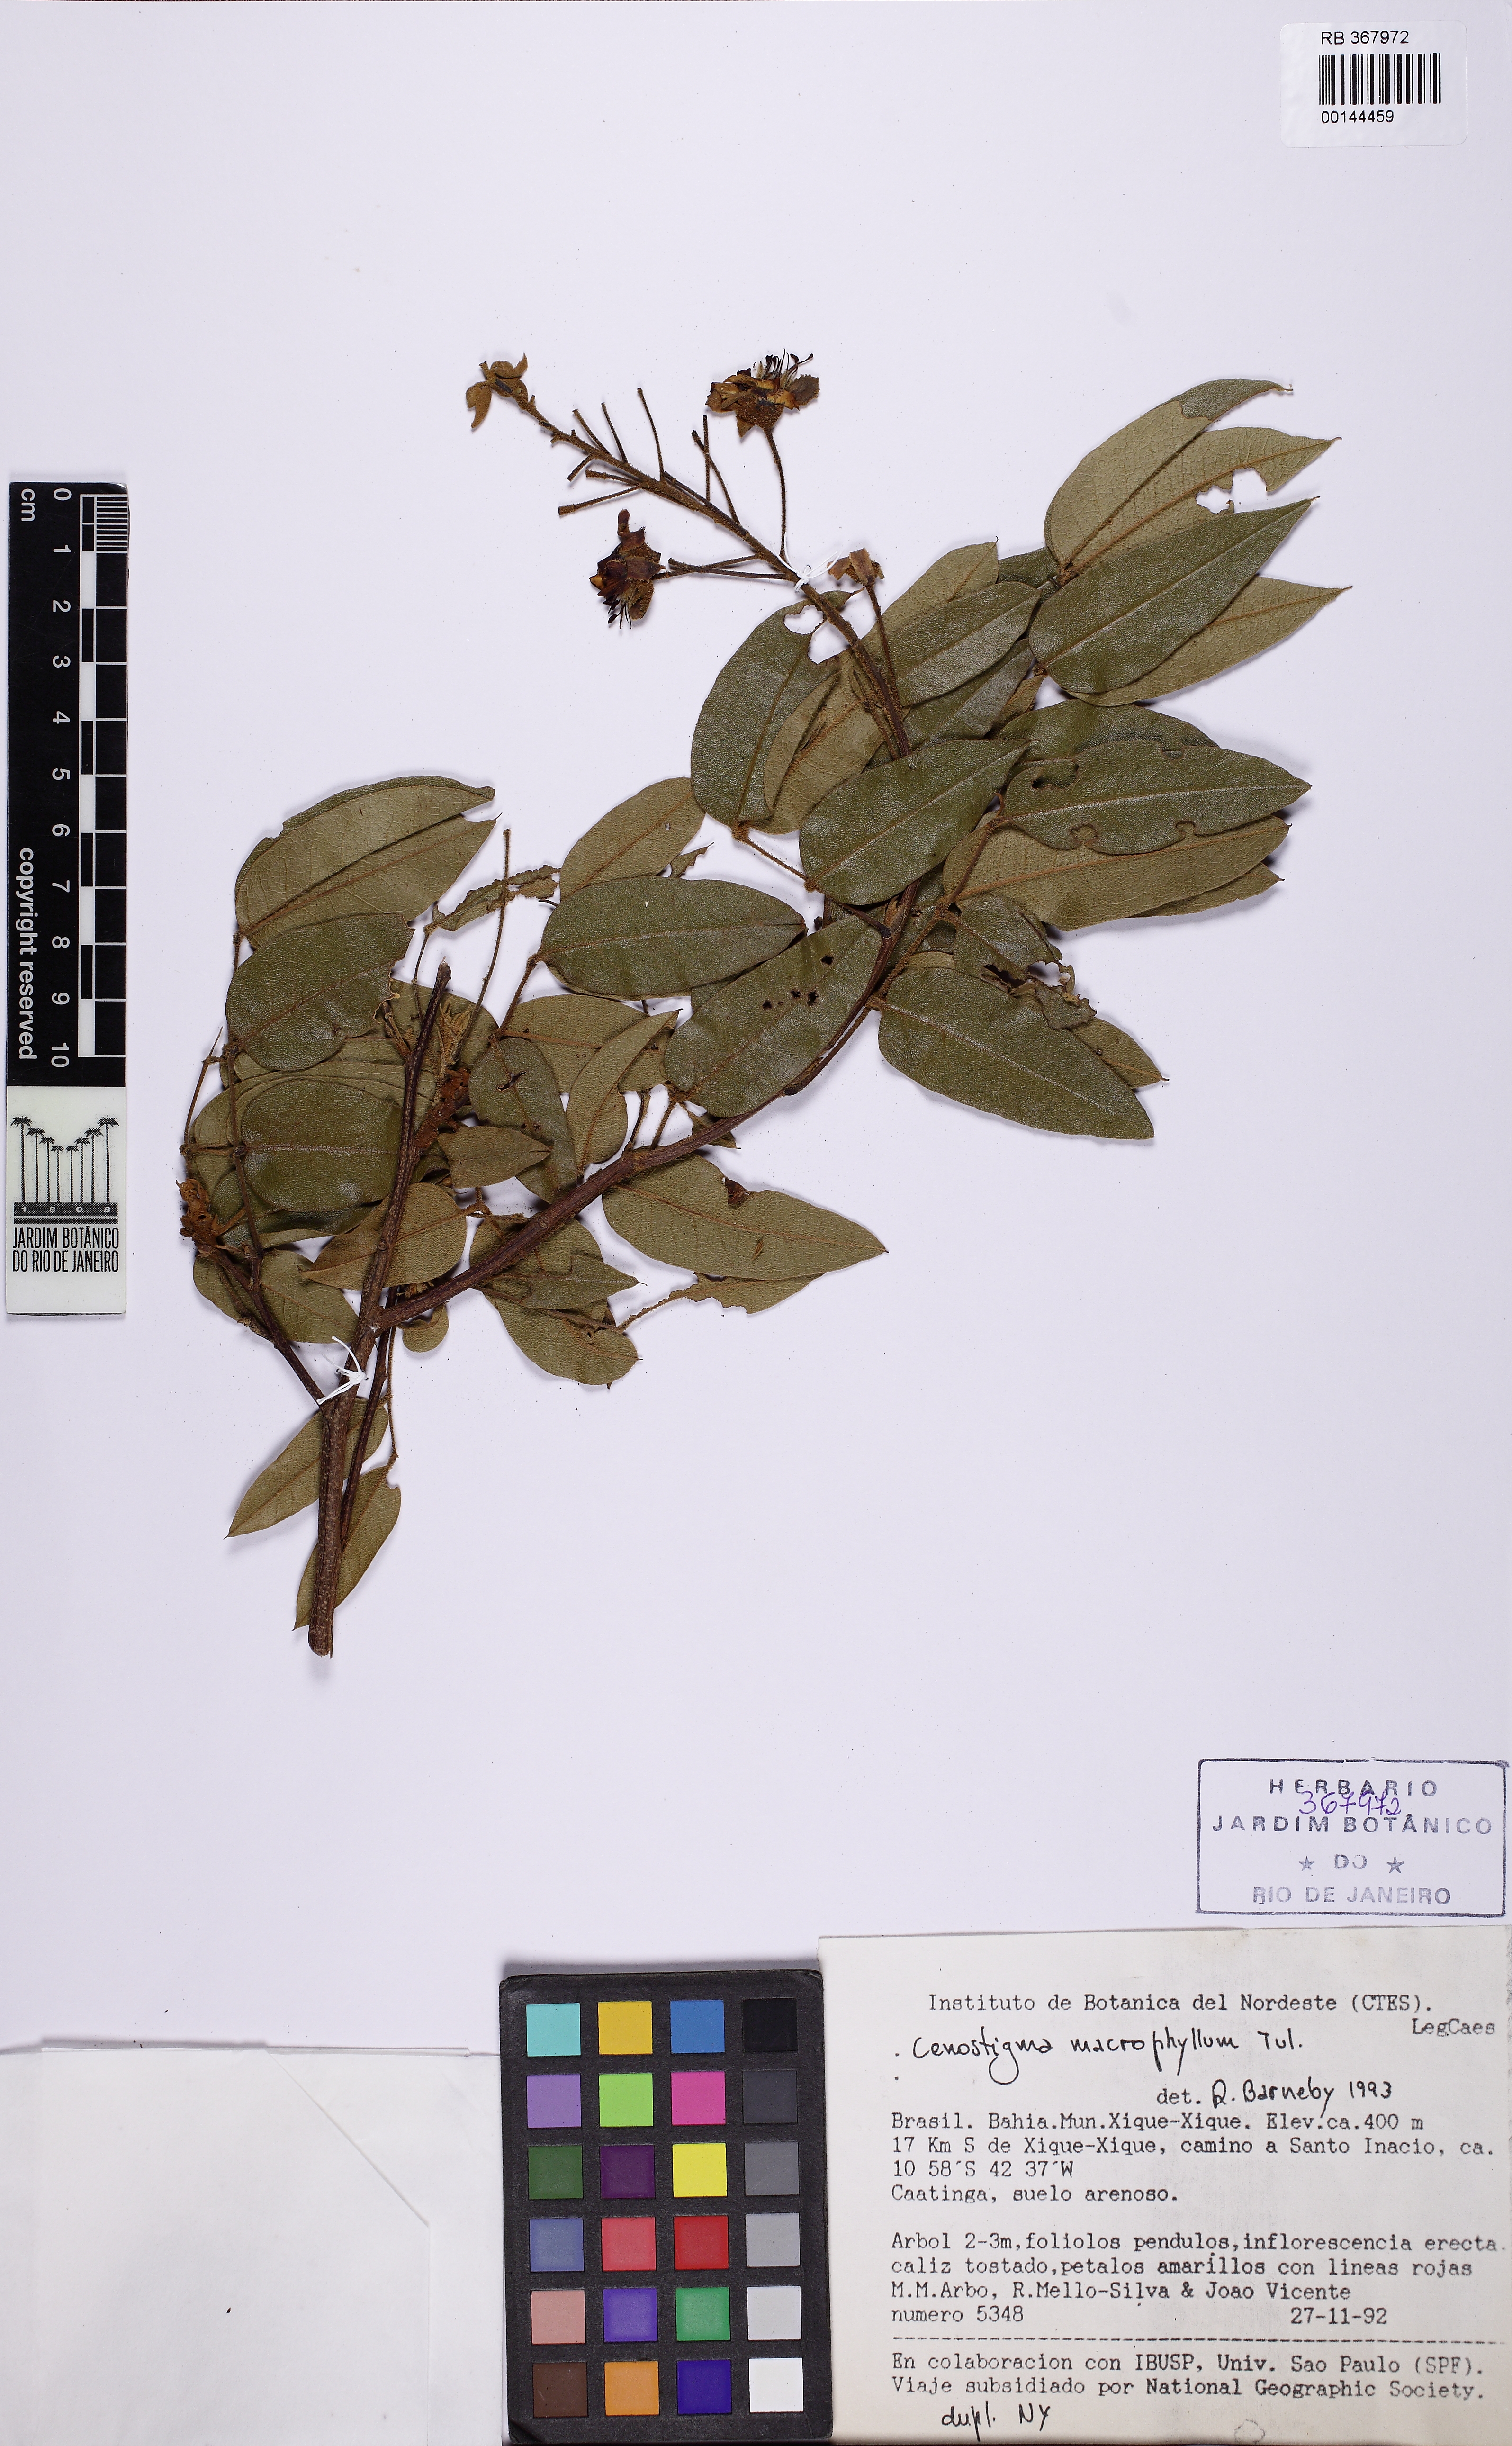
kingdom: Plantae
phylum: Tracheophyta
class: Magnoliopsida
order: Fabales
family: Fabaceae
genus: Cenostigma
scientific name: Cenostigma macrophyllum
